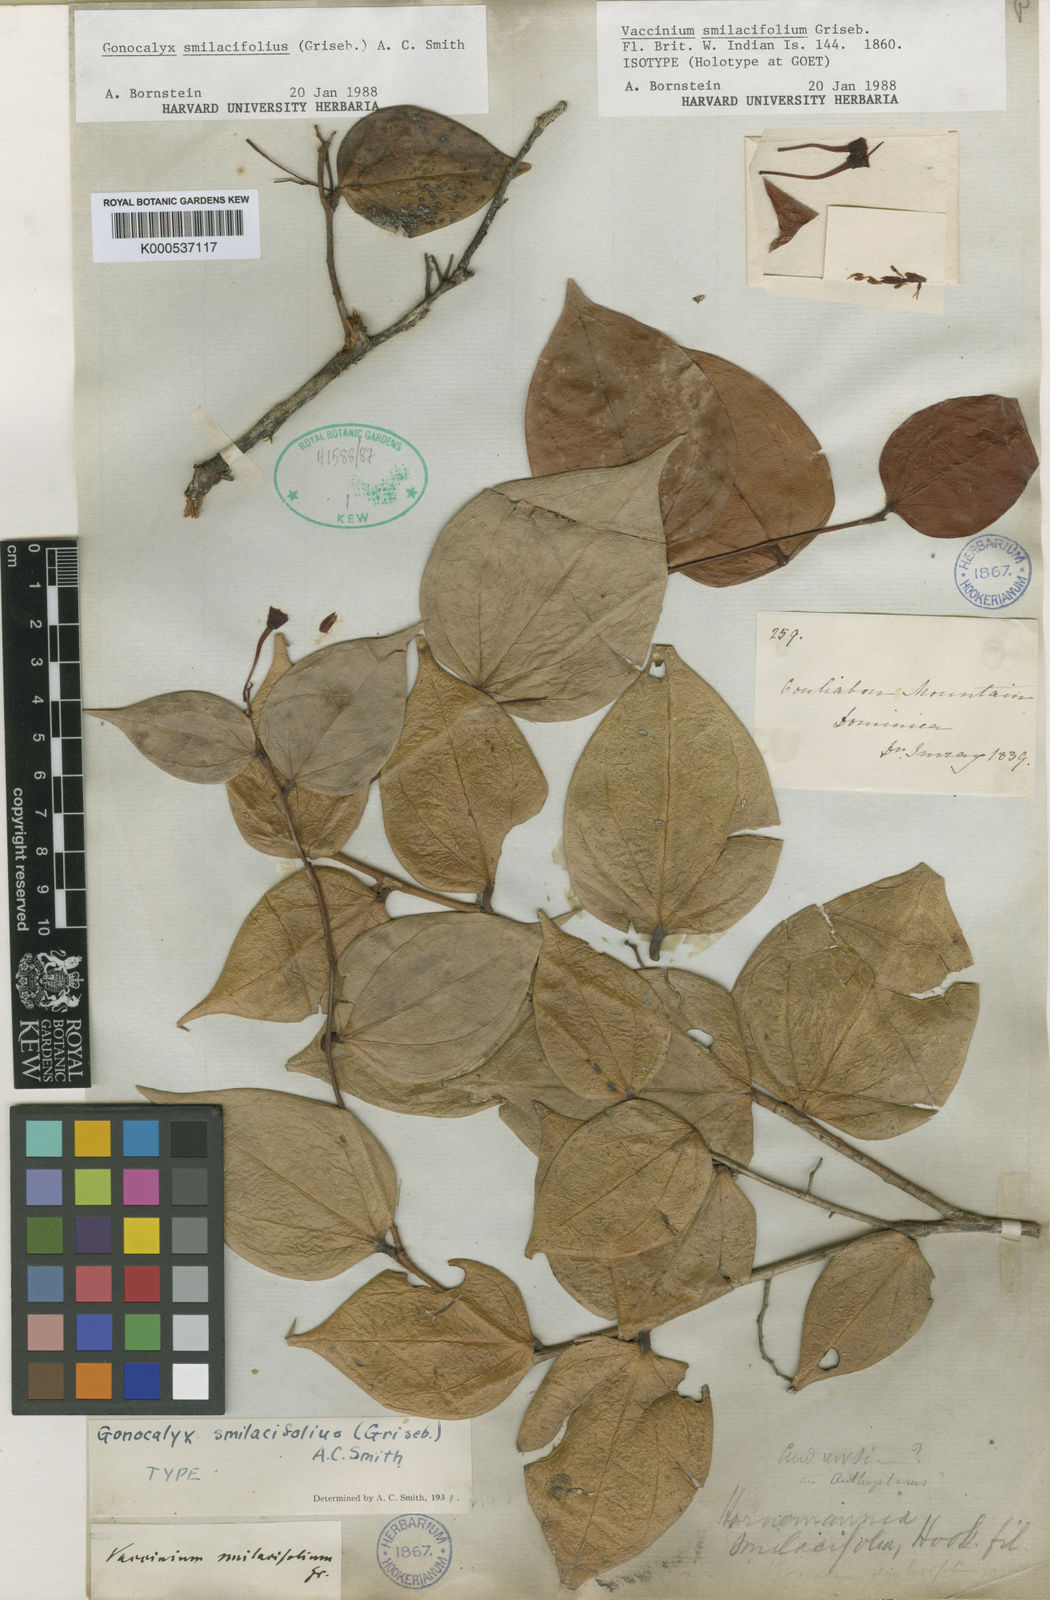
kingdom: Plantae
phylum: Tracheophyta
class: Magnoliopsida
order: Ericales
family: Ericaceae
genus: Gonocalyx
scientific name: Gonocalyx smilacifolius
